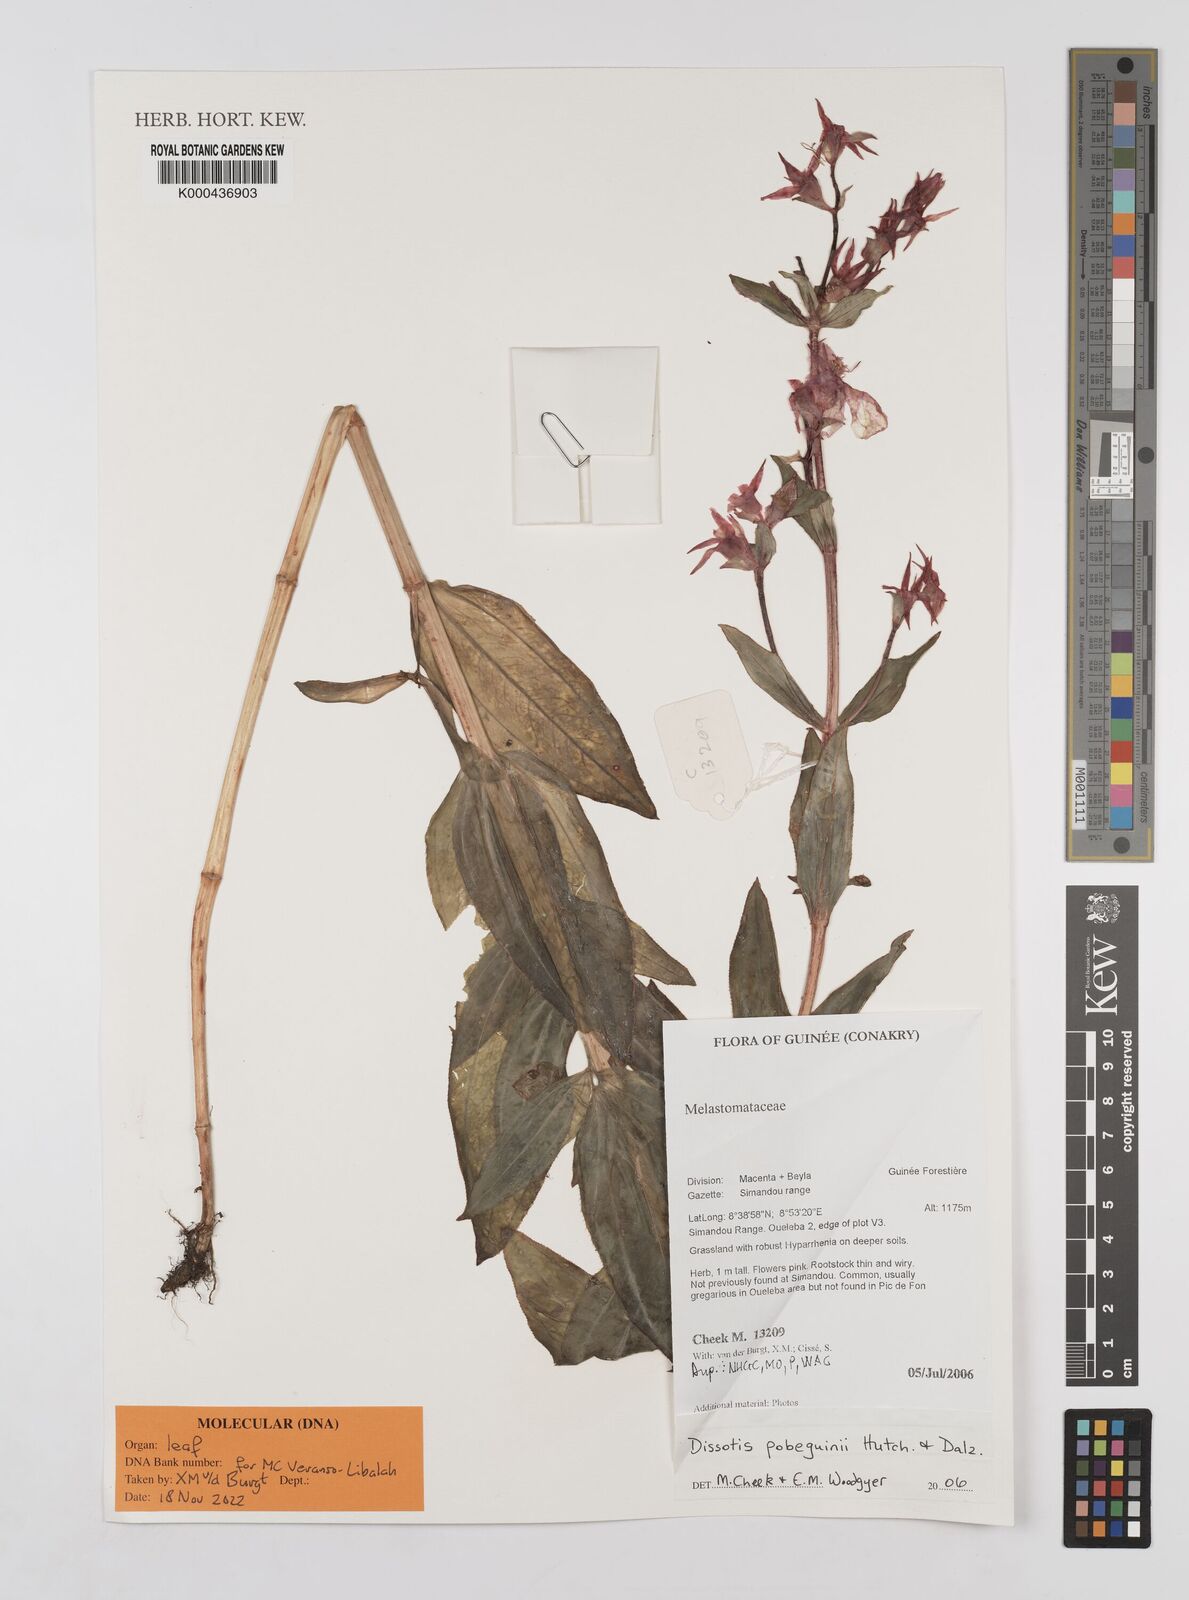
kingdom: Plantae
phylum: Tracheophyta
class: Magnoliopsida
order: Myrtales
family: Melastomataceae
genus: Anaheterotis
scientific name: Anaheterotis pobeguinii
